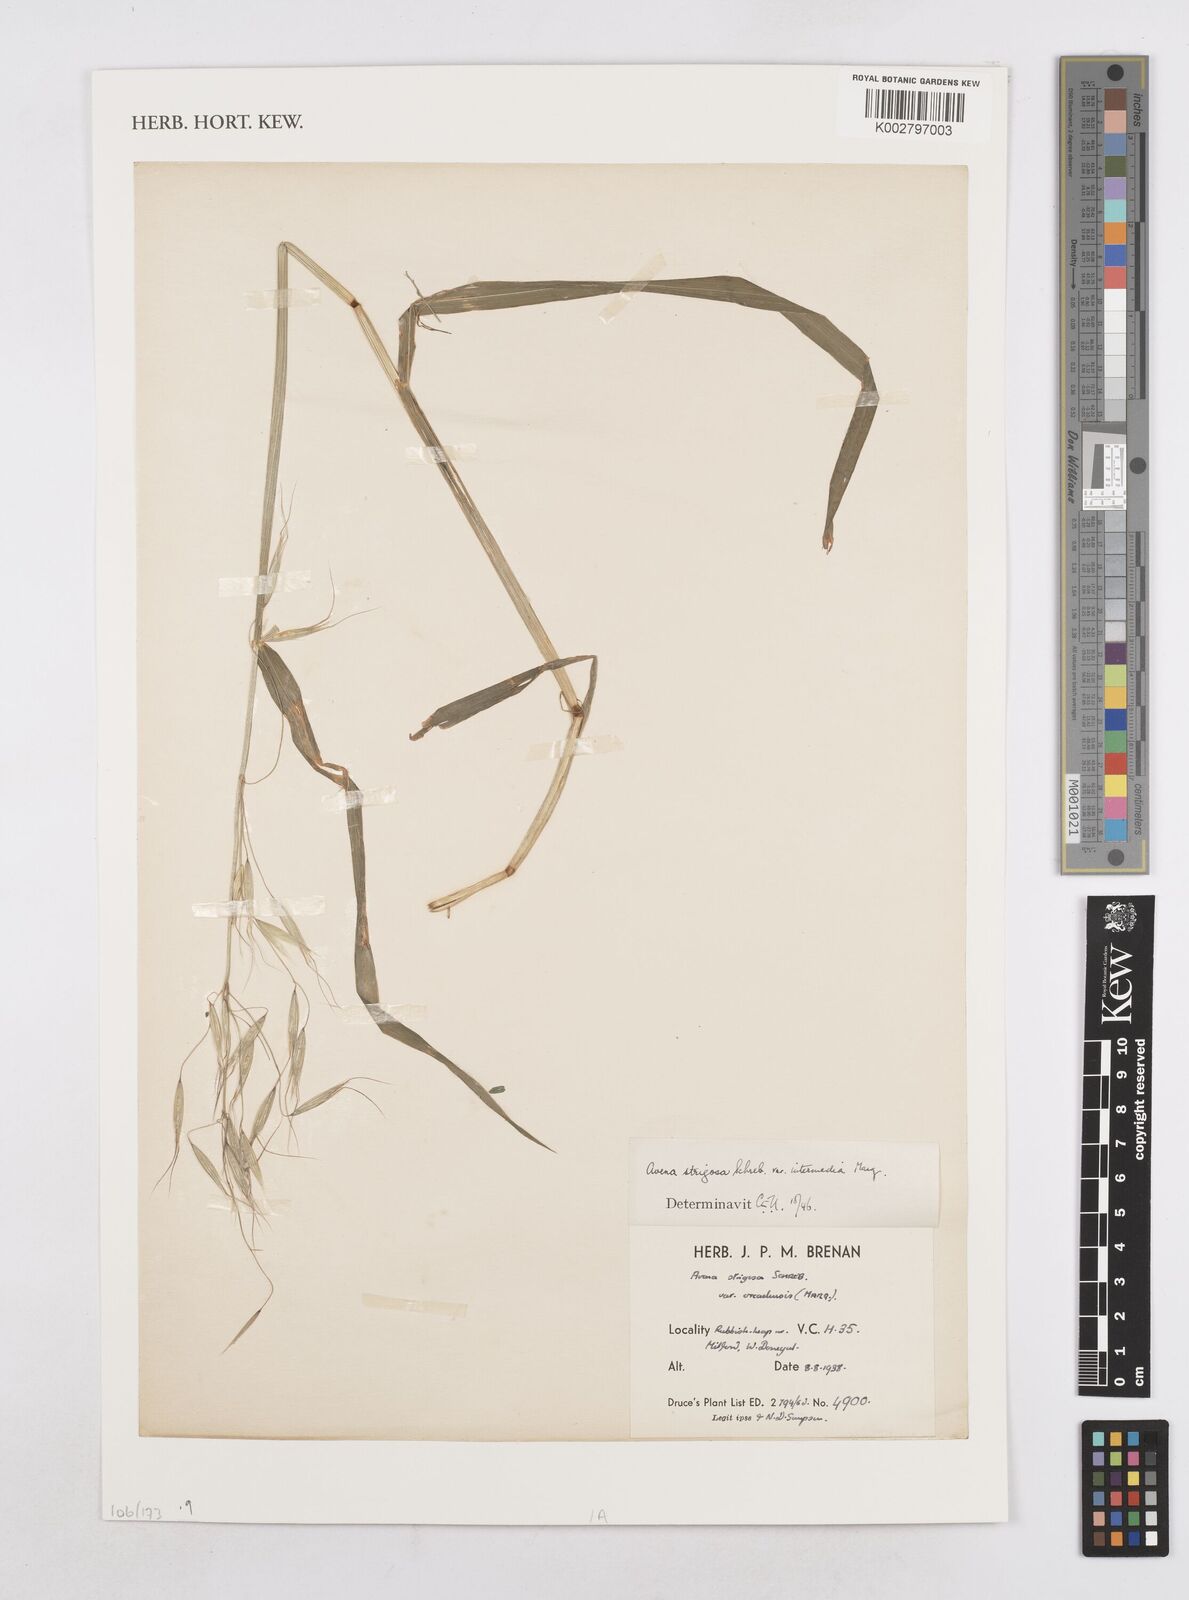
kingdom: Plantae
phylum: Tracheophyta
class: Liliopsida
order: Poales
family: Poaceae
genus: Avena
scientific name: Avena strigosa
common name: Bristle oat
